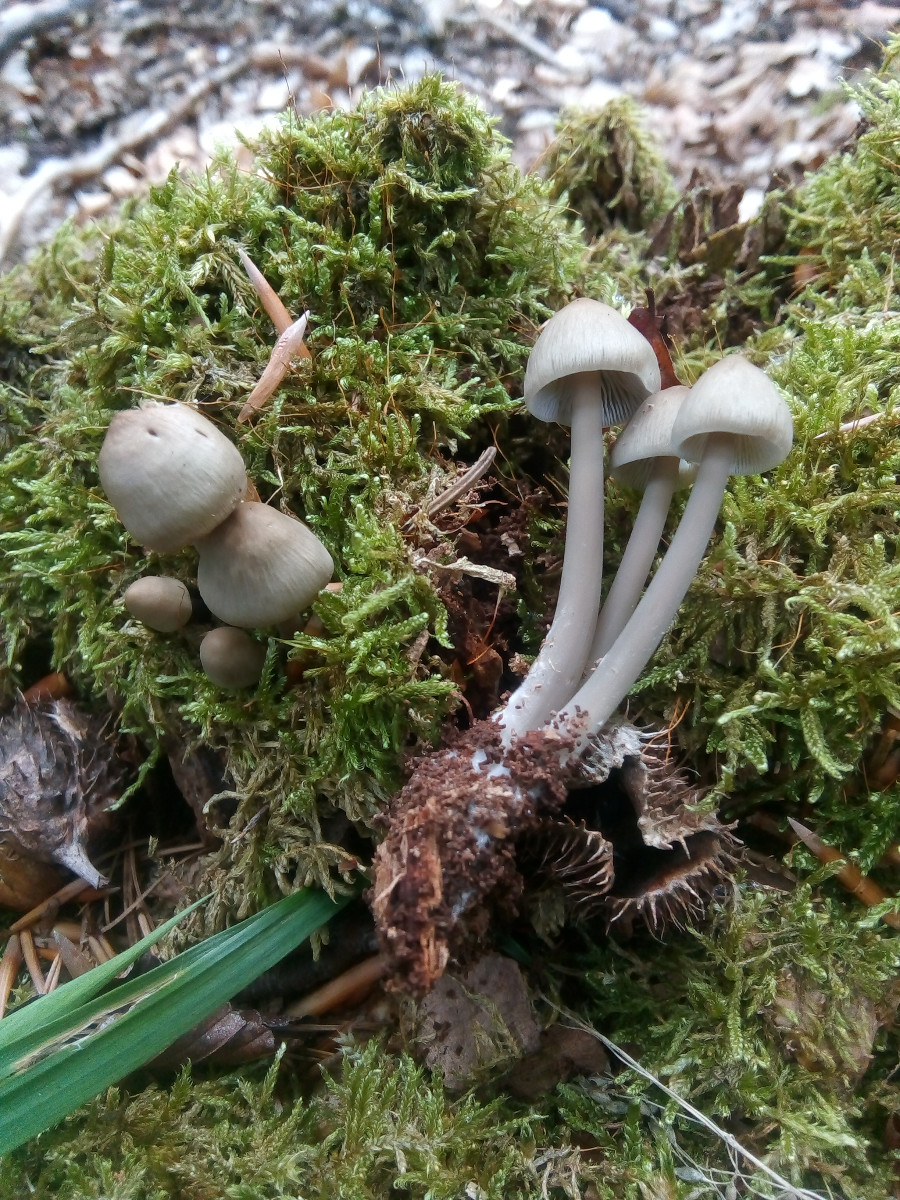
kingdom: Fungi
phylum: Basidiomycota
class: Agaricomycetes
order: Agaricales
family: Mycenaceae
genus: Mycena
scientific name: Mycena galericulata
